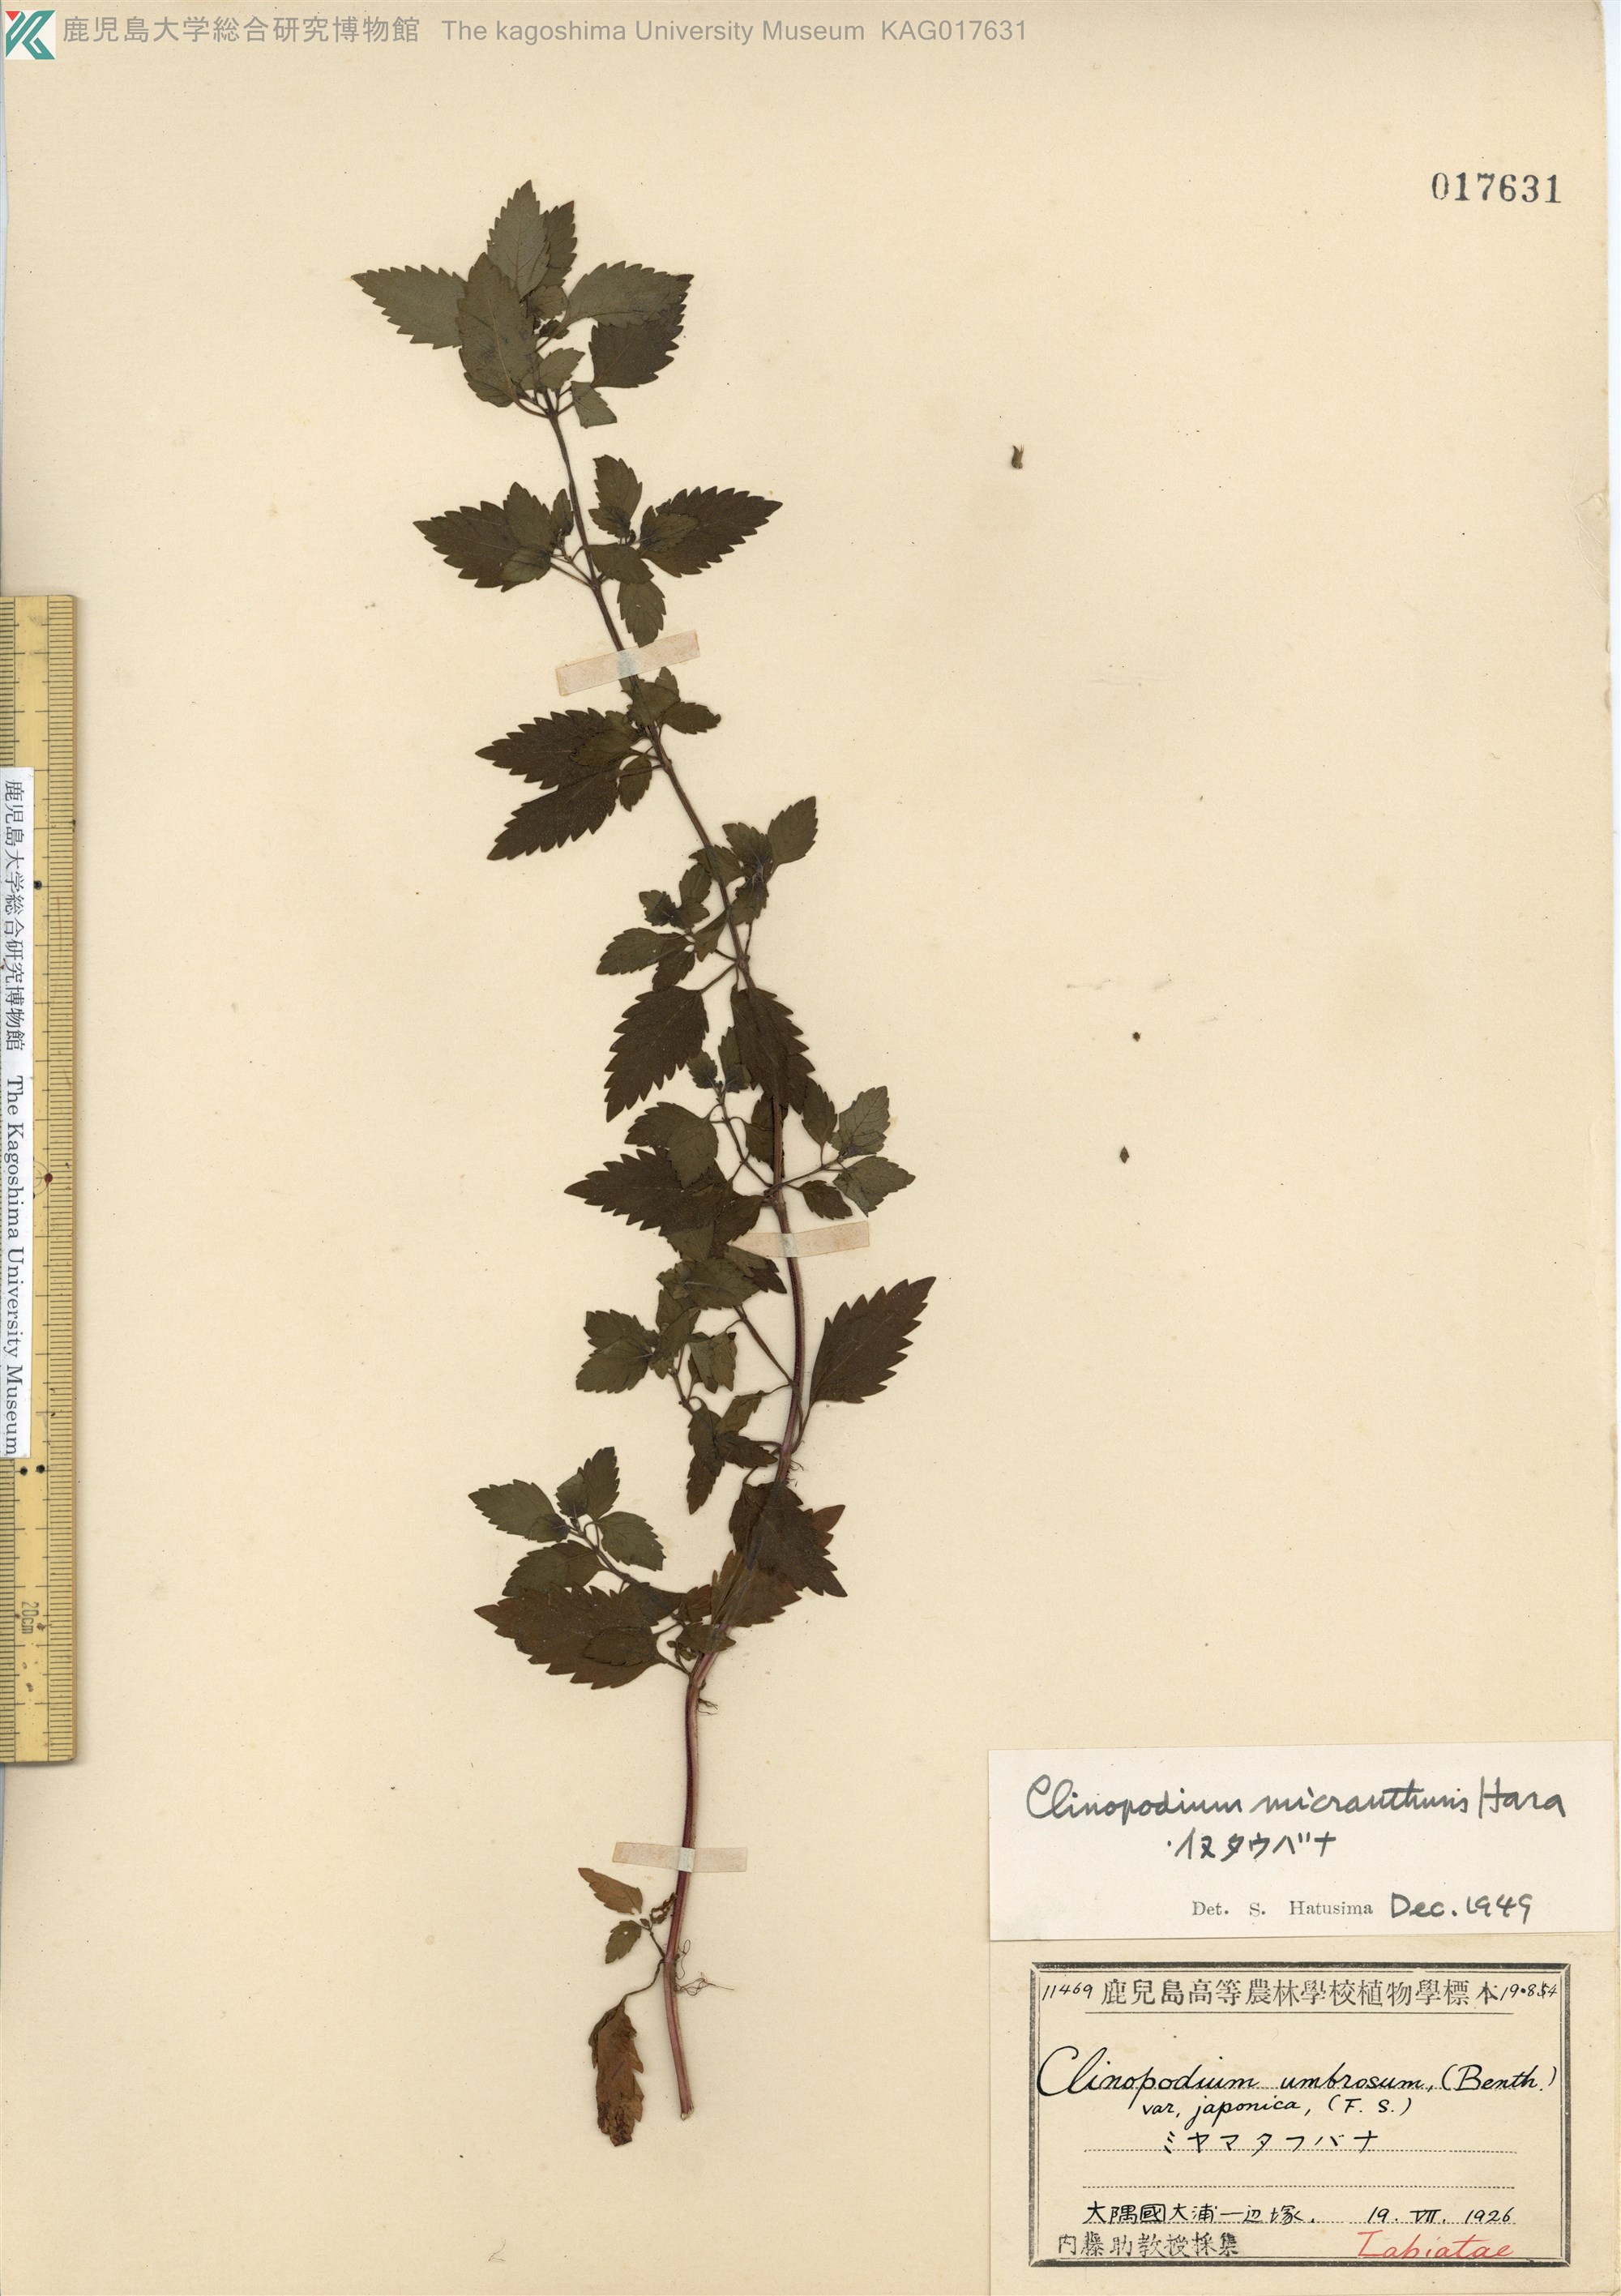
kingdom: Plantae
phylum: Tracheophyta
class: Magnoliopsida
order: Lamiales
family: Lamiaceae
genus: Clinopodium
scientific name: Clinopodium micranthum
